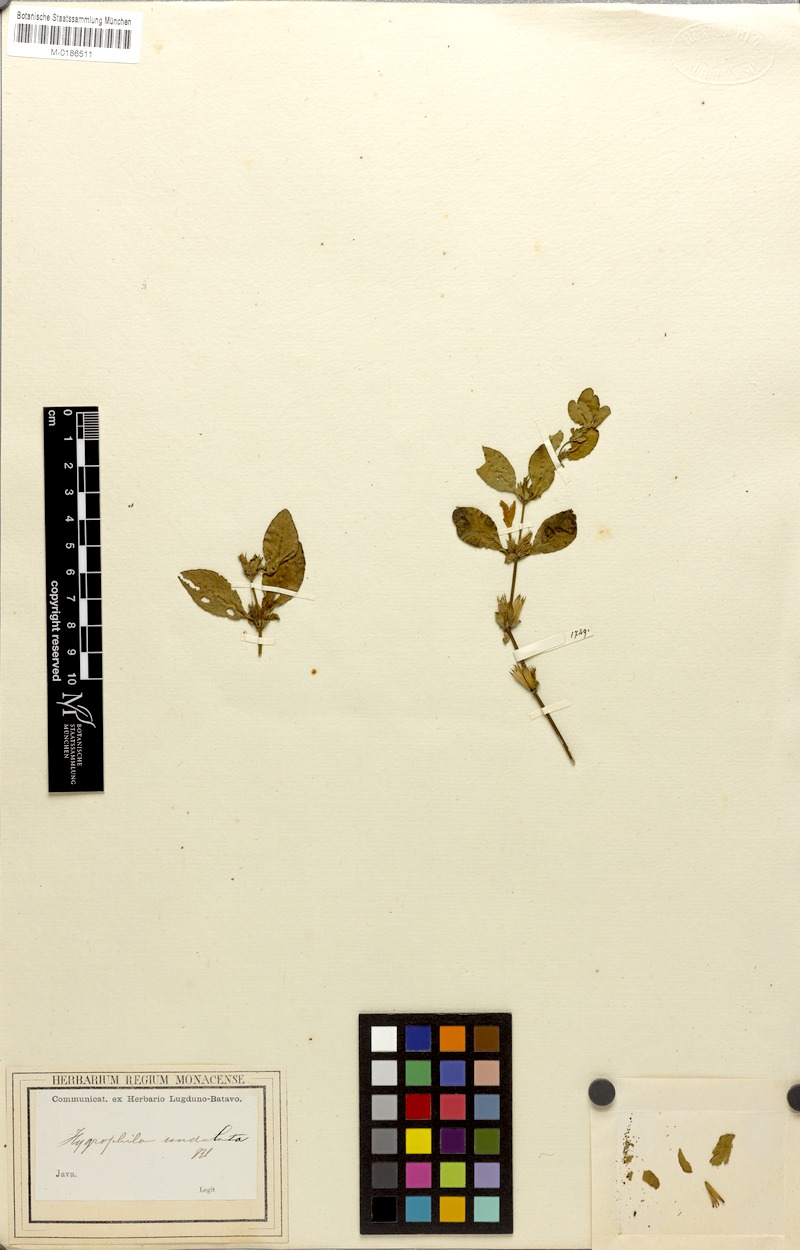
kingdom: Plantae
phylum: Tracheophyta
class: Magnoliopsida
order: Lamiales
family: Acanthaceae
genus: Hygrophila
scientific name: Hygrophila ringens
